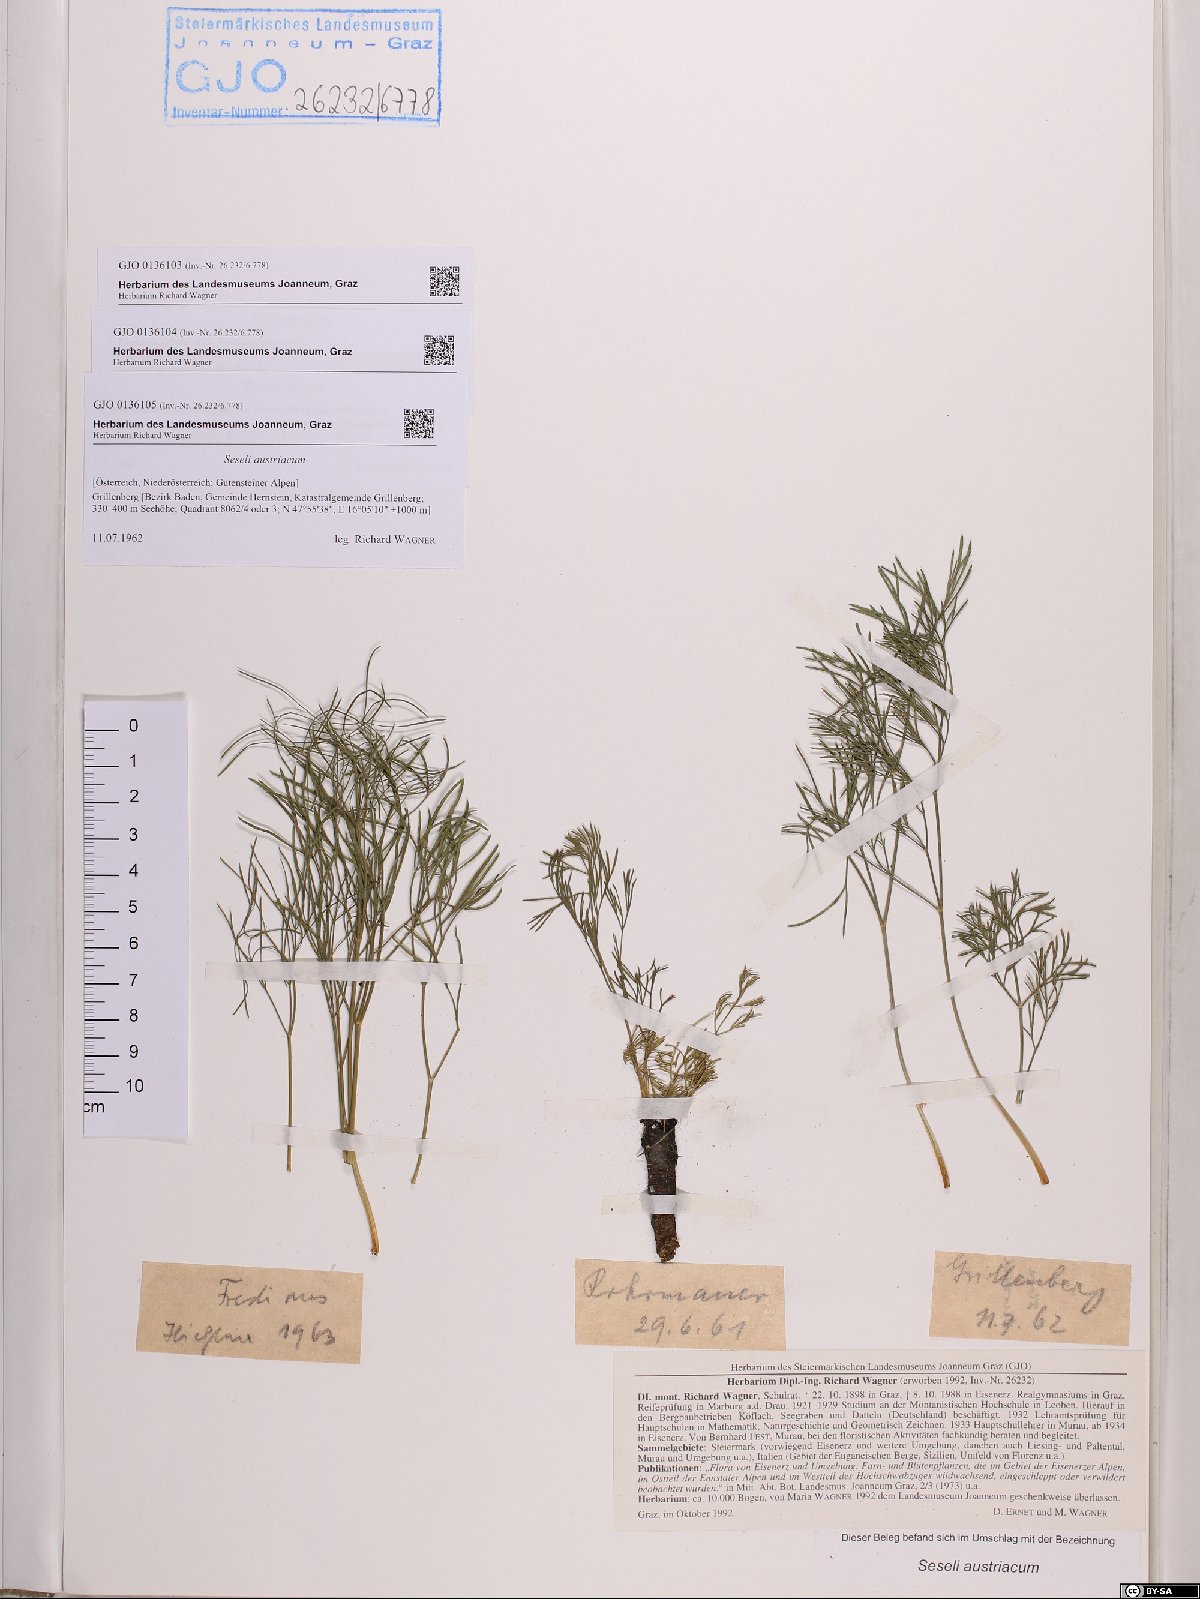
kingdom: Plantae
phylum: Tracheophyta
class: Magnoliopsida
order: Apiales
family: Apiaceae
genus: Seseli
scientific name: Seseli austriacum
